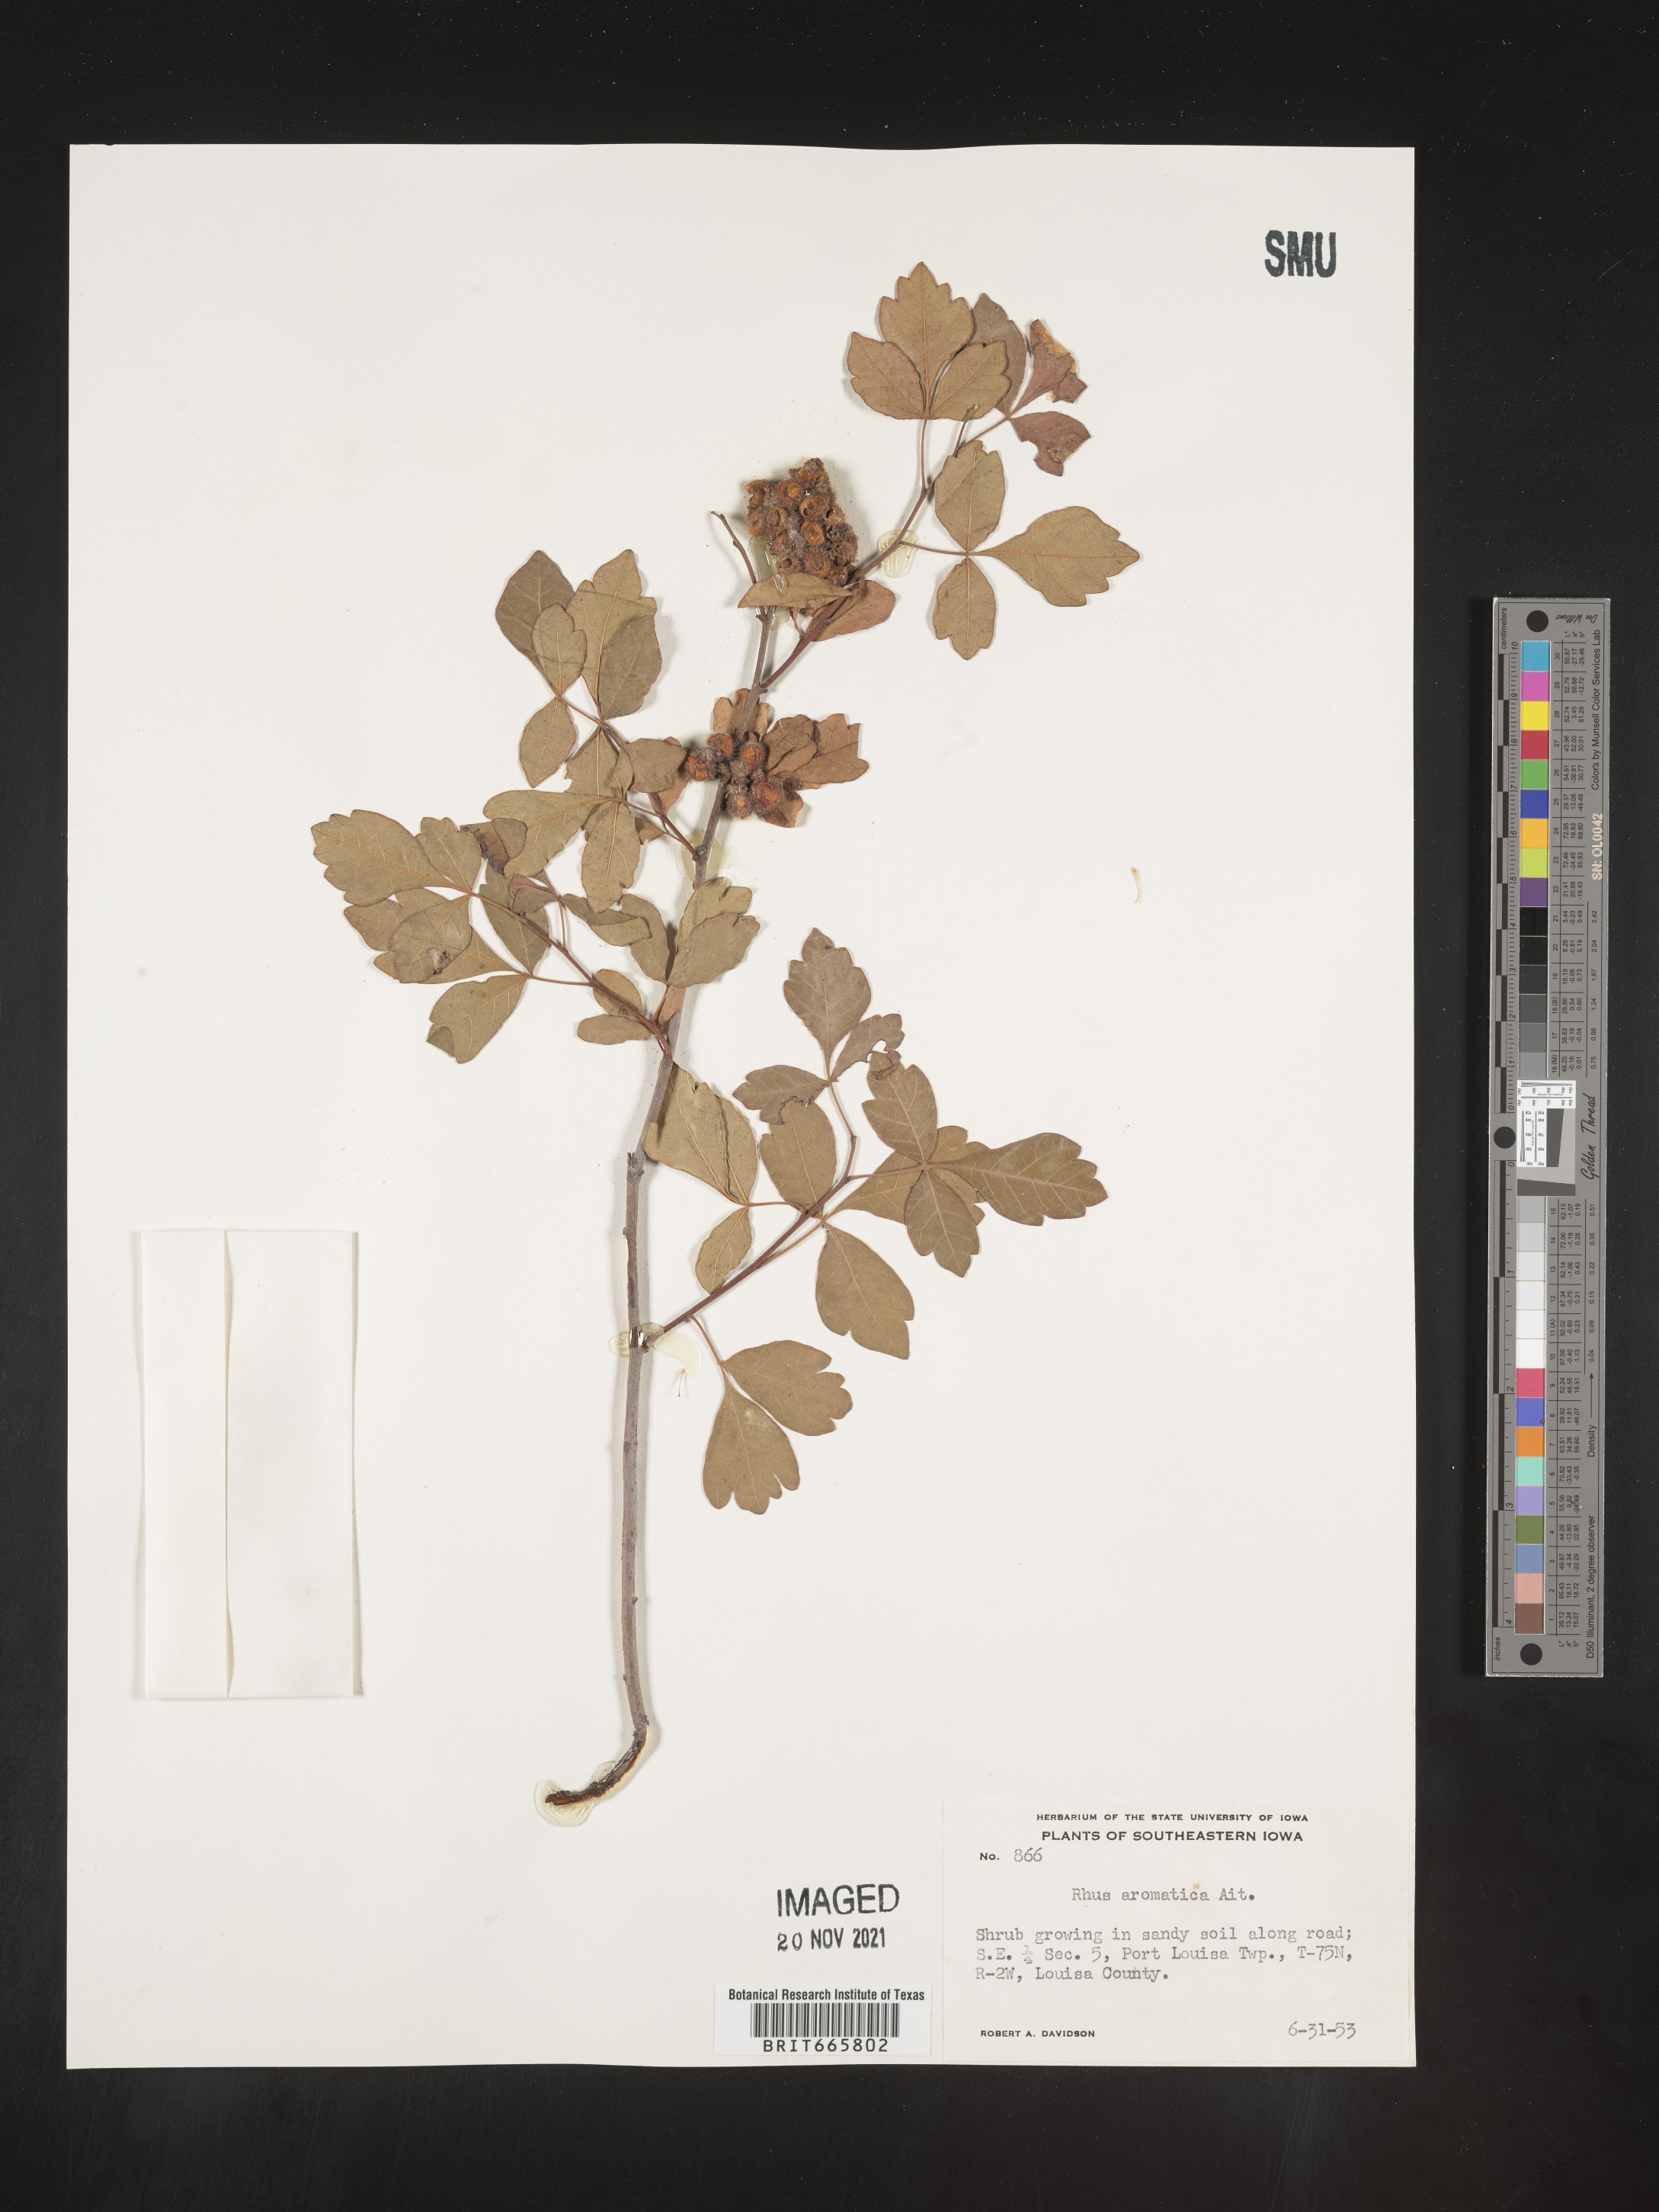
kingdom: Plantae
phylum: Tracheophyta
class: Magnoliopsida
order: Sapindales
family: Anacardiaceae
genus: Rhus
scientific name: Rhus aromatica
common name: Aromatic sumac
